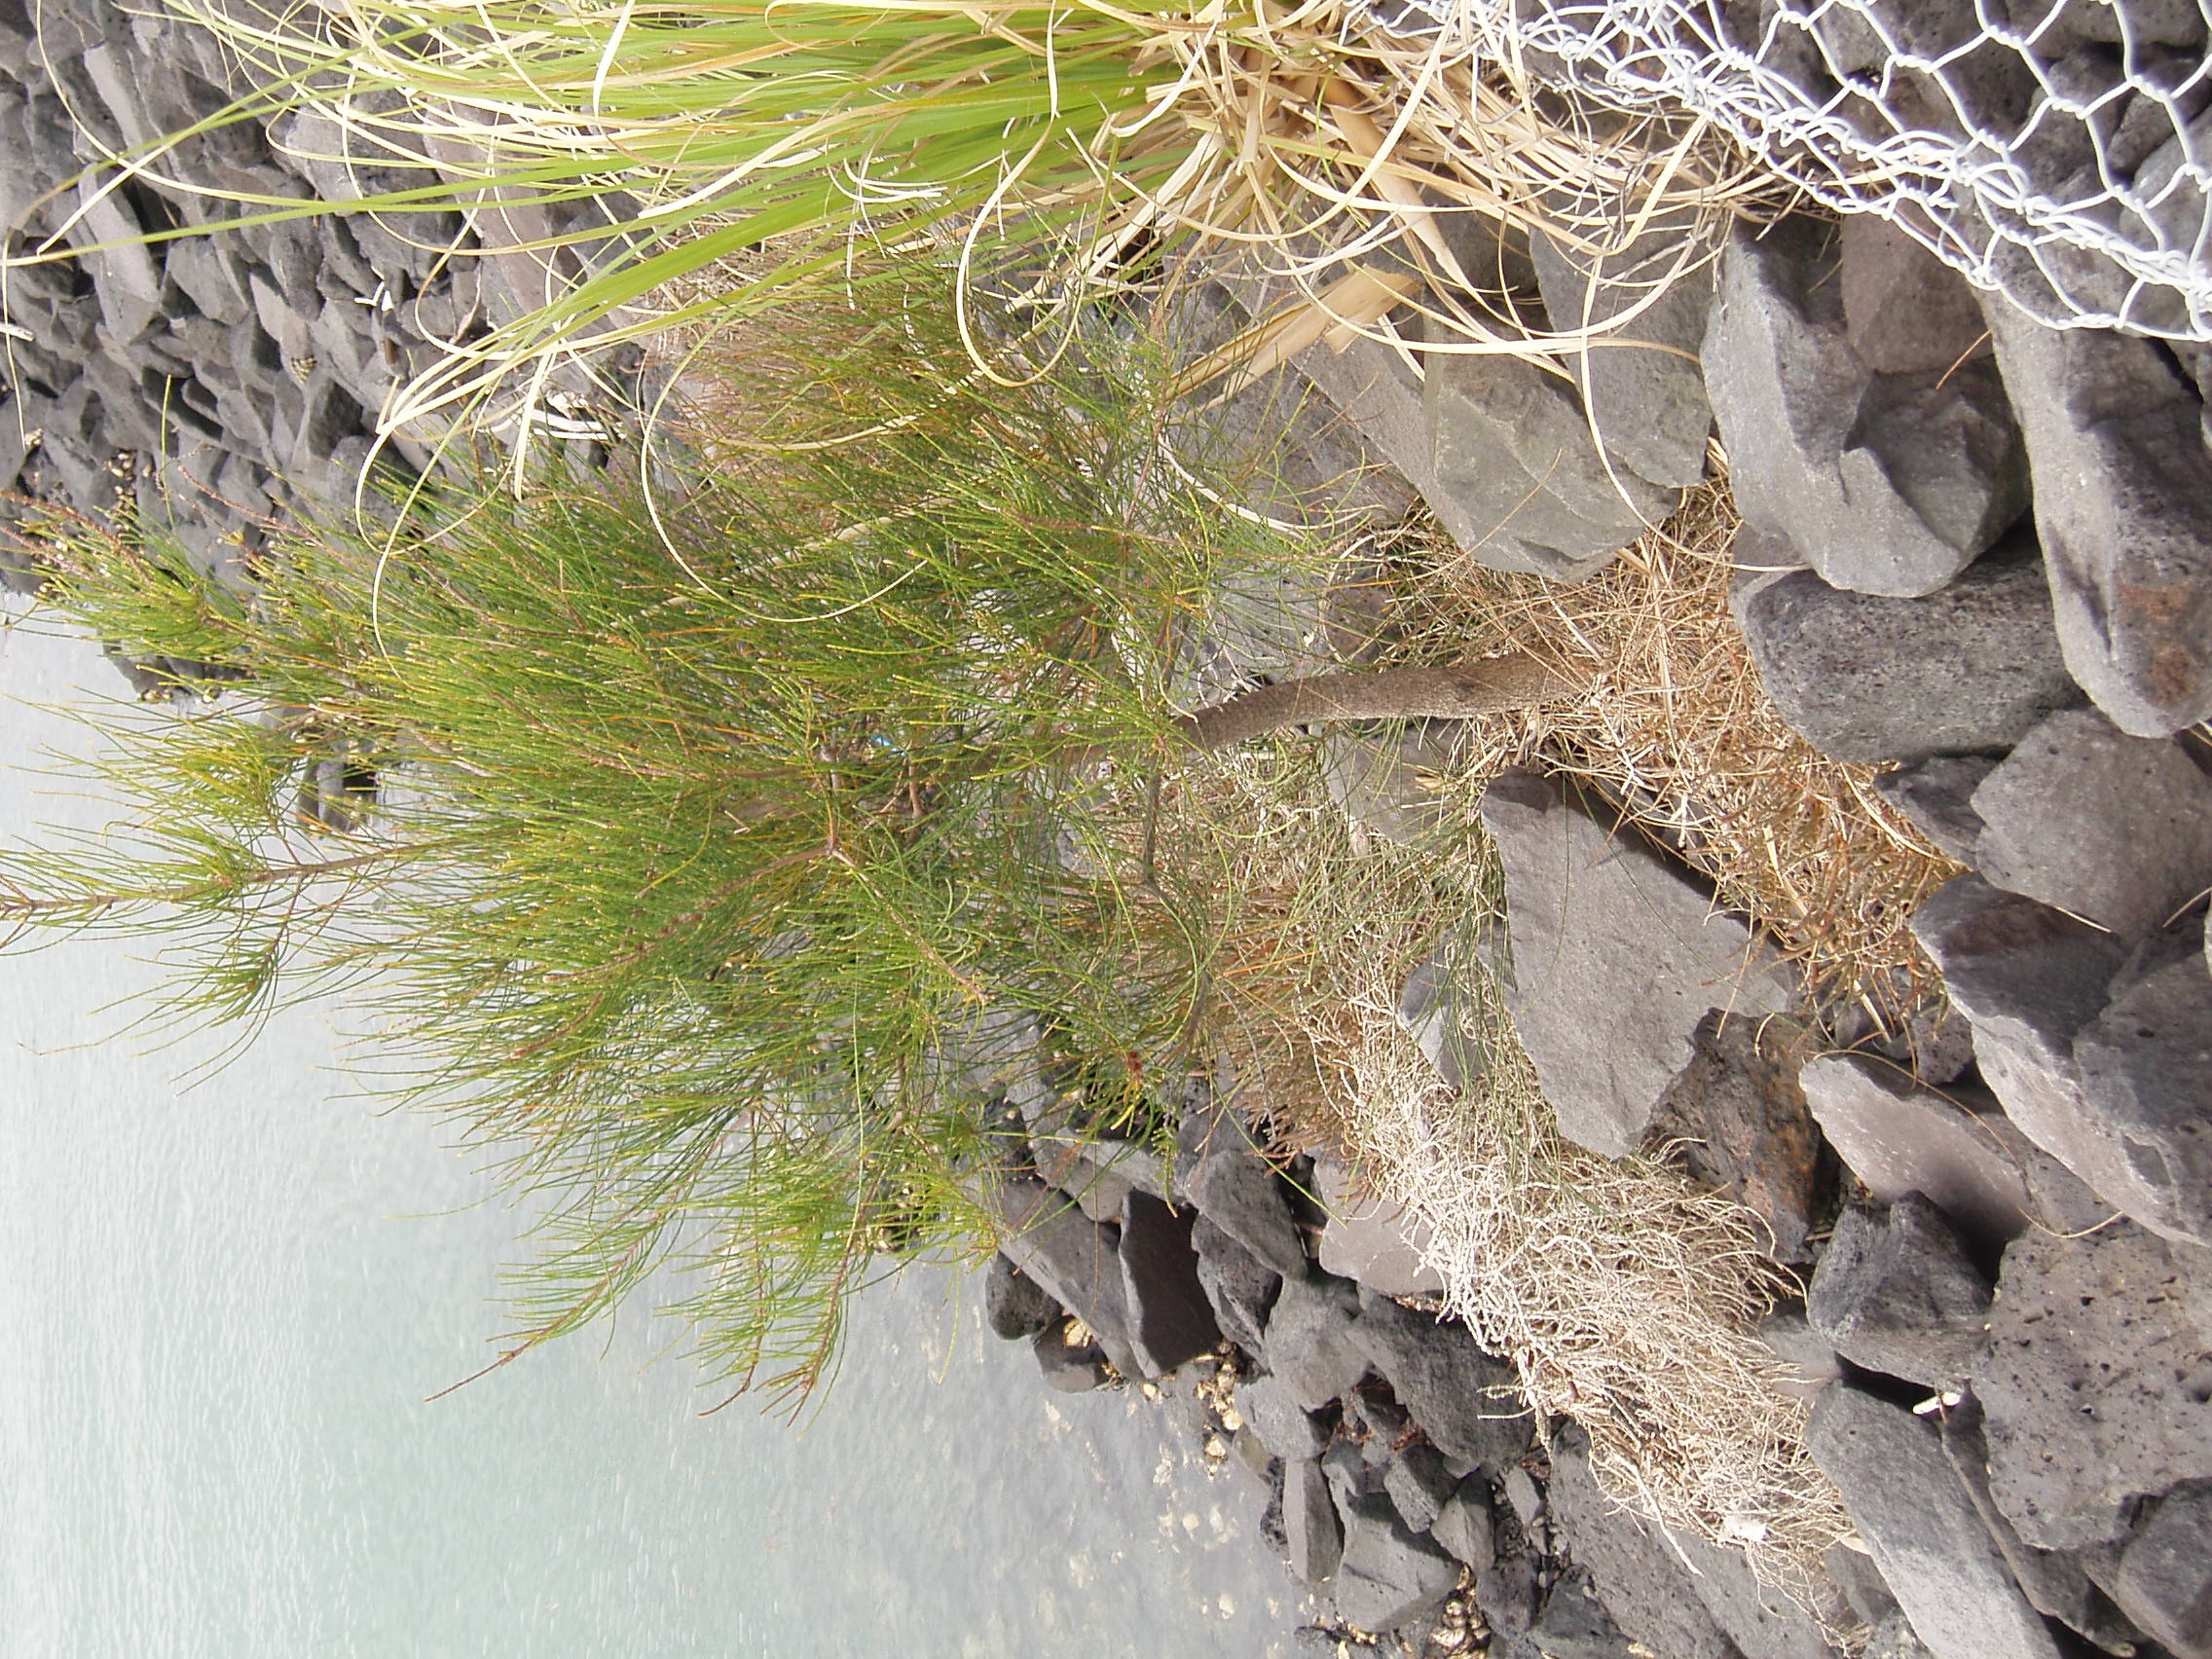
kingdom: Plantae
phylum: Tracheophyta
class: Magnoliopsida
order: Fagales
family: Casuarinaceae
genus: Casuarina
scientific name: Casuarina glauca
